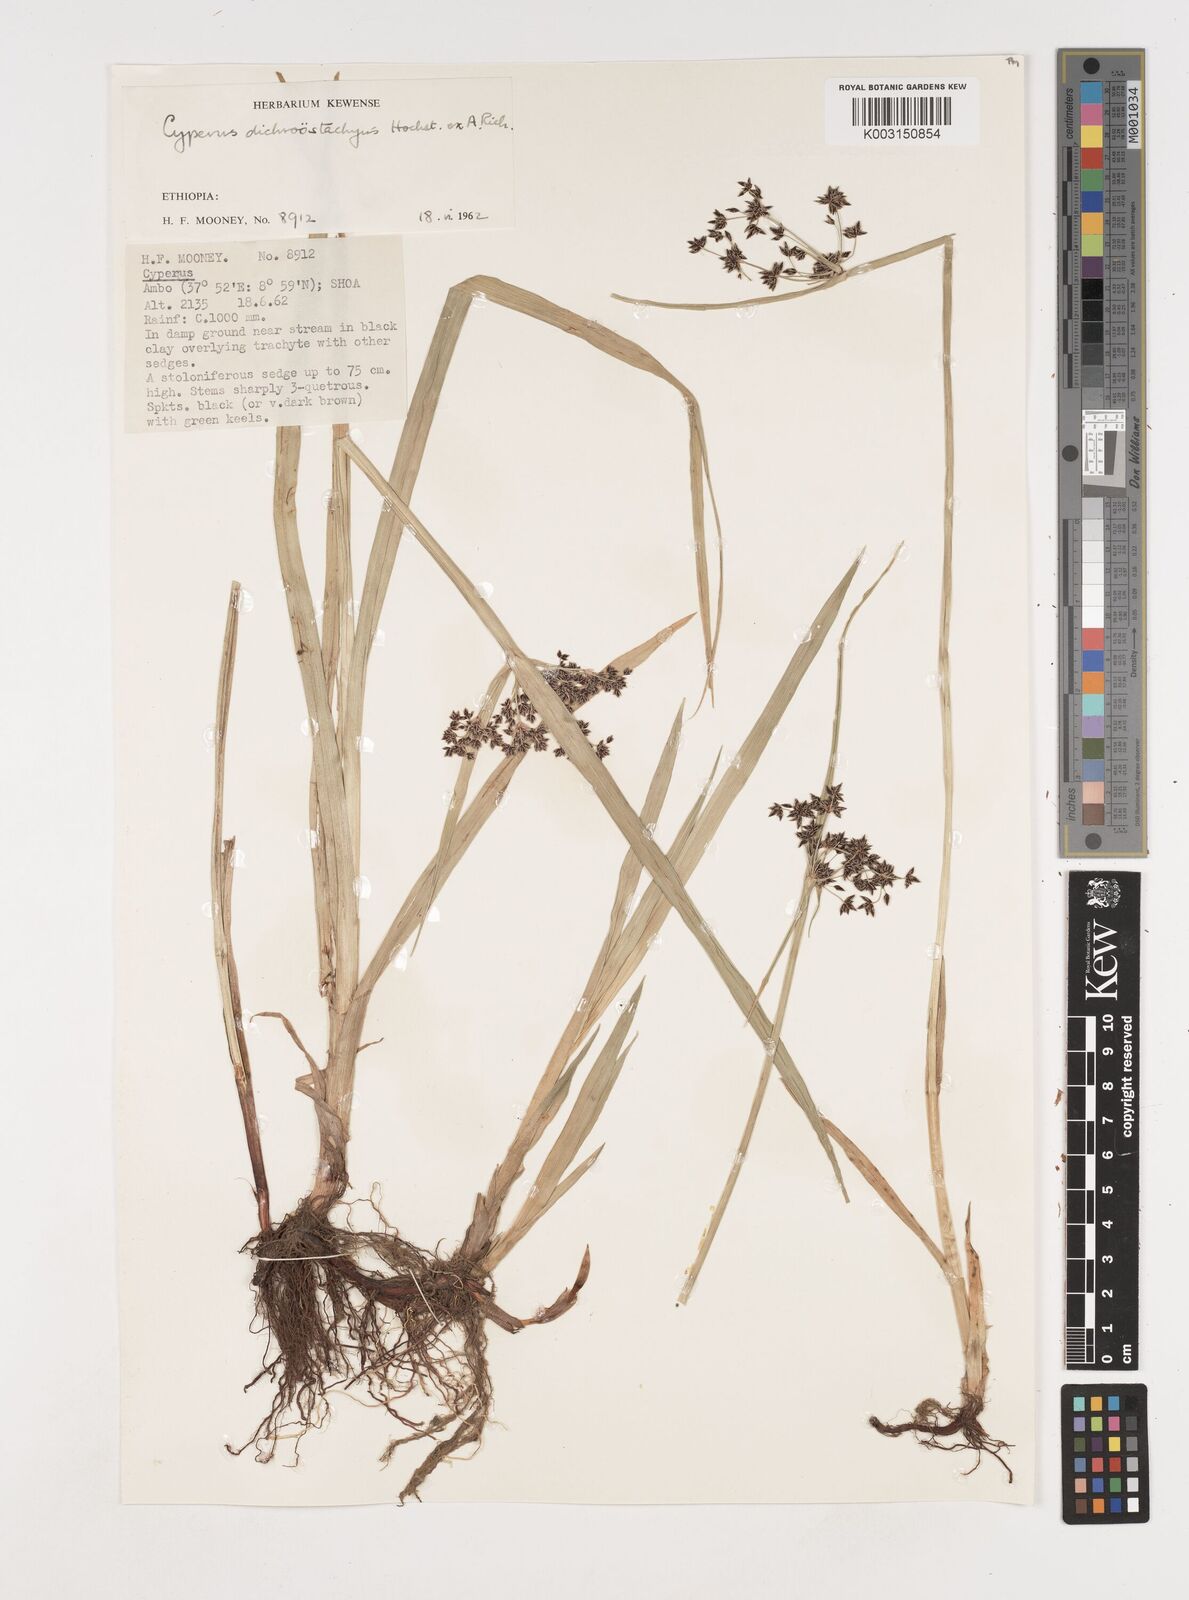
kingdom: Plantae
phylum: Tracheophyta
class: Liliopsida
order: Poales
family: Cyperaceae
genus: Cyperus
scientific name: Cyperus dichrostachyus
